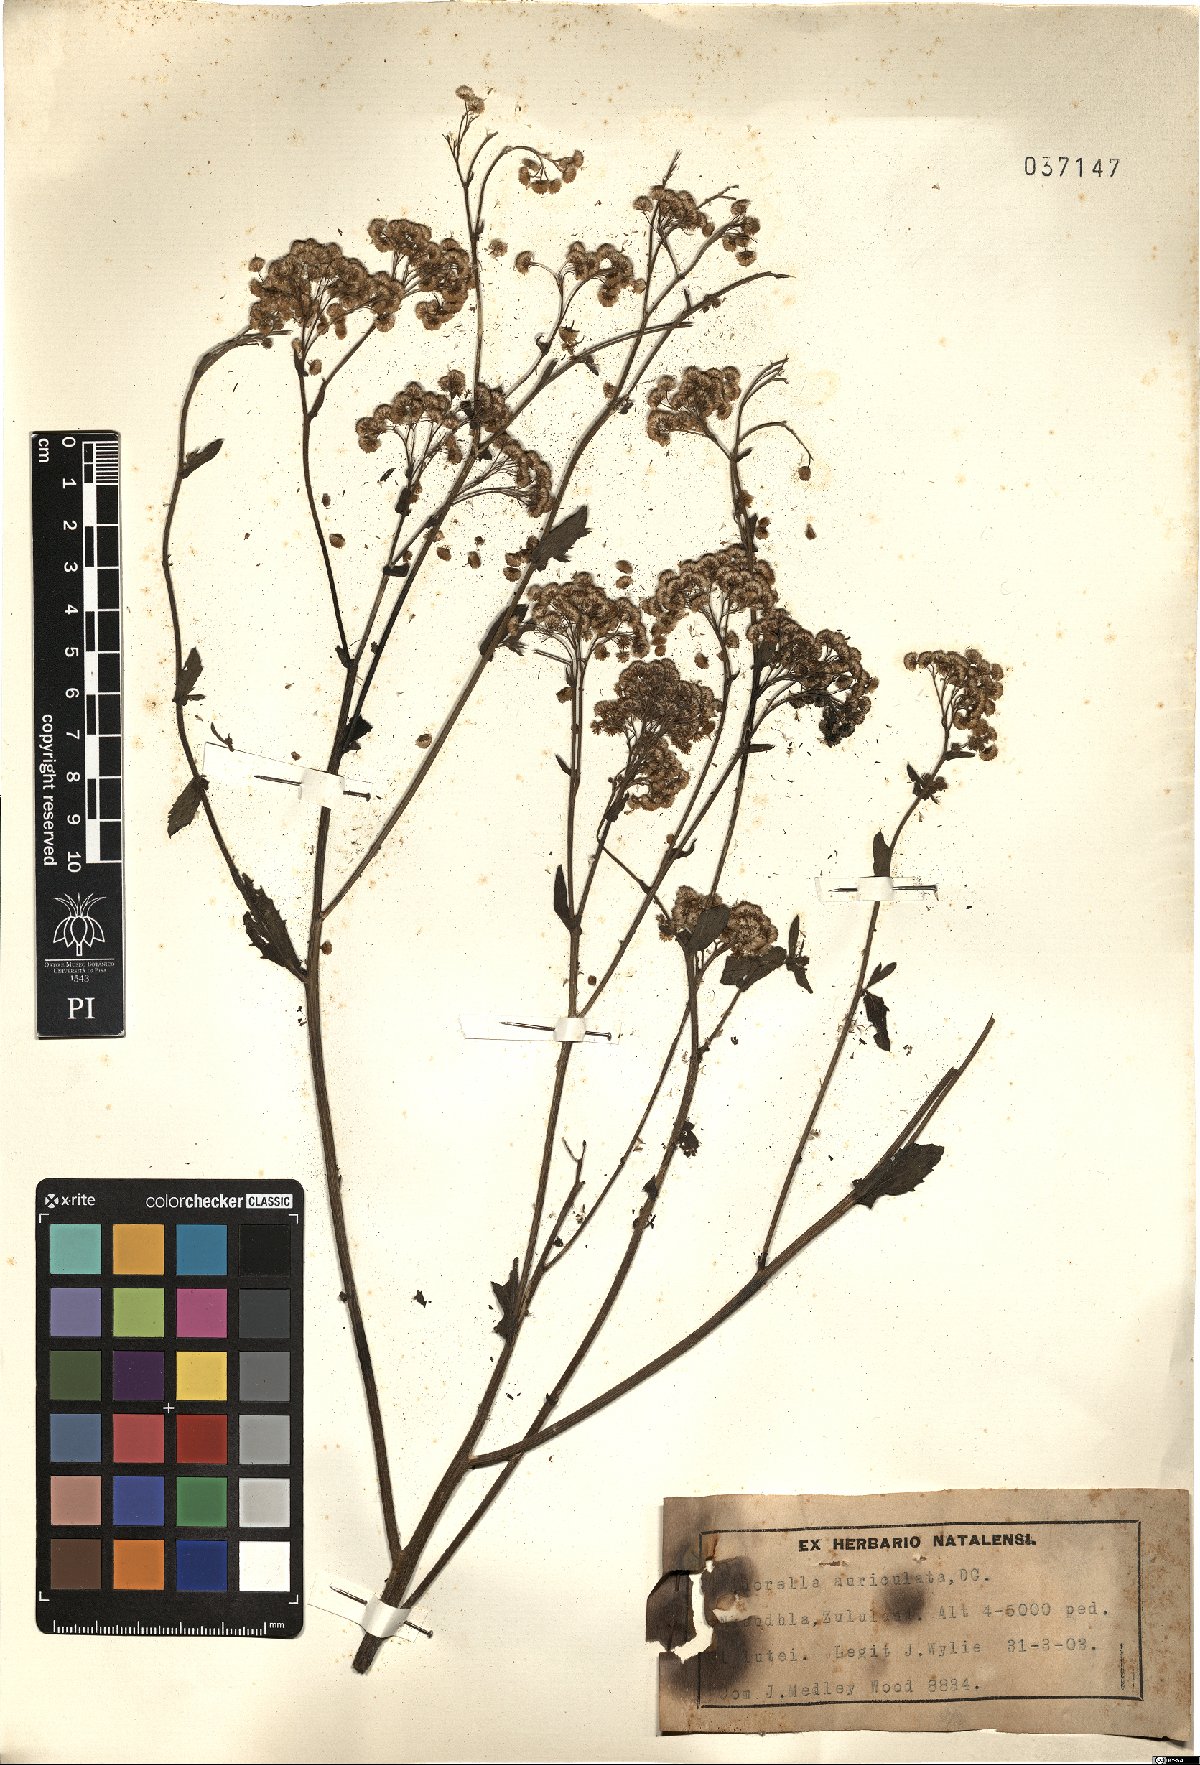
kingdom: Plantae
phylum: Tracheophyta
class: Magnoliopsida
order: Asterales
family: Asteraceae
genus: Nidorella
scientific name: Nidorella auriculata
